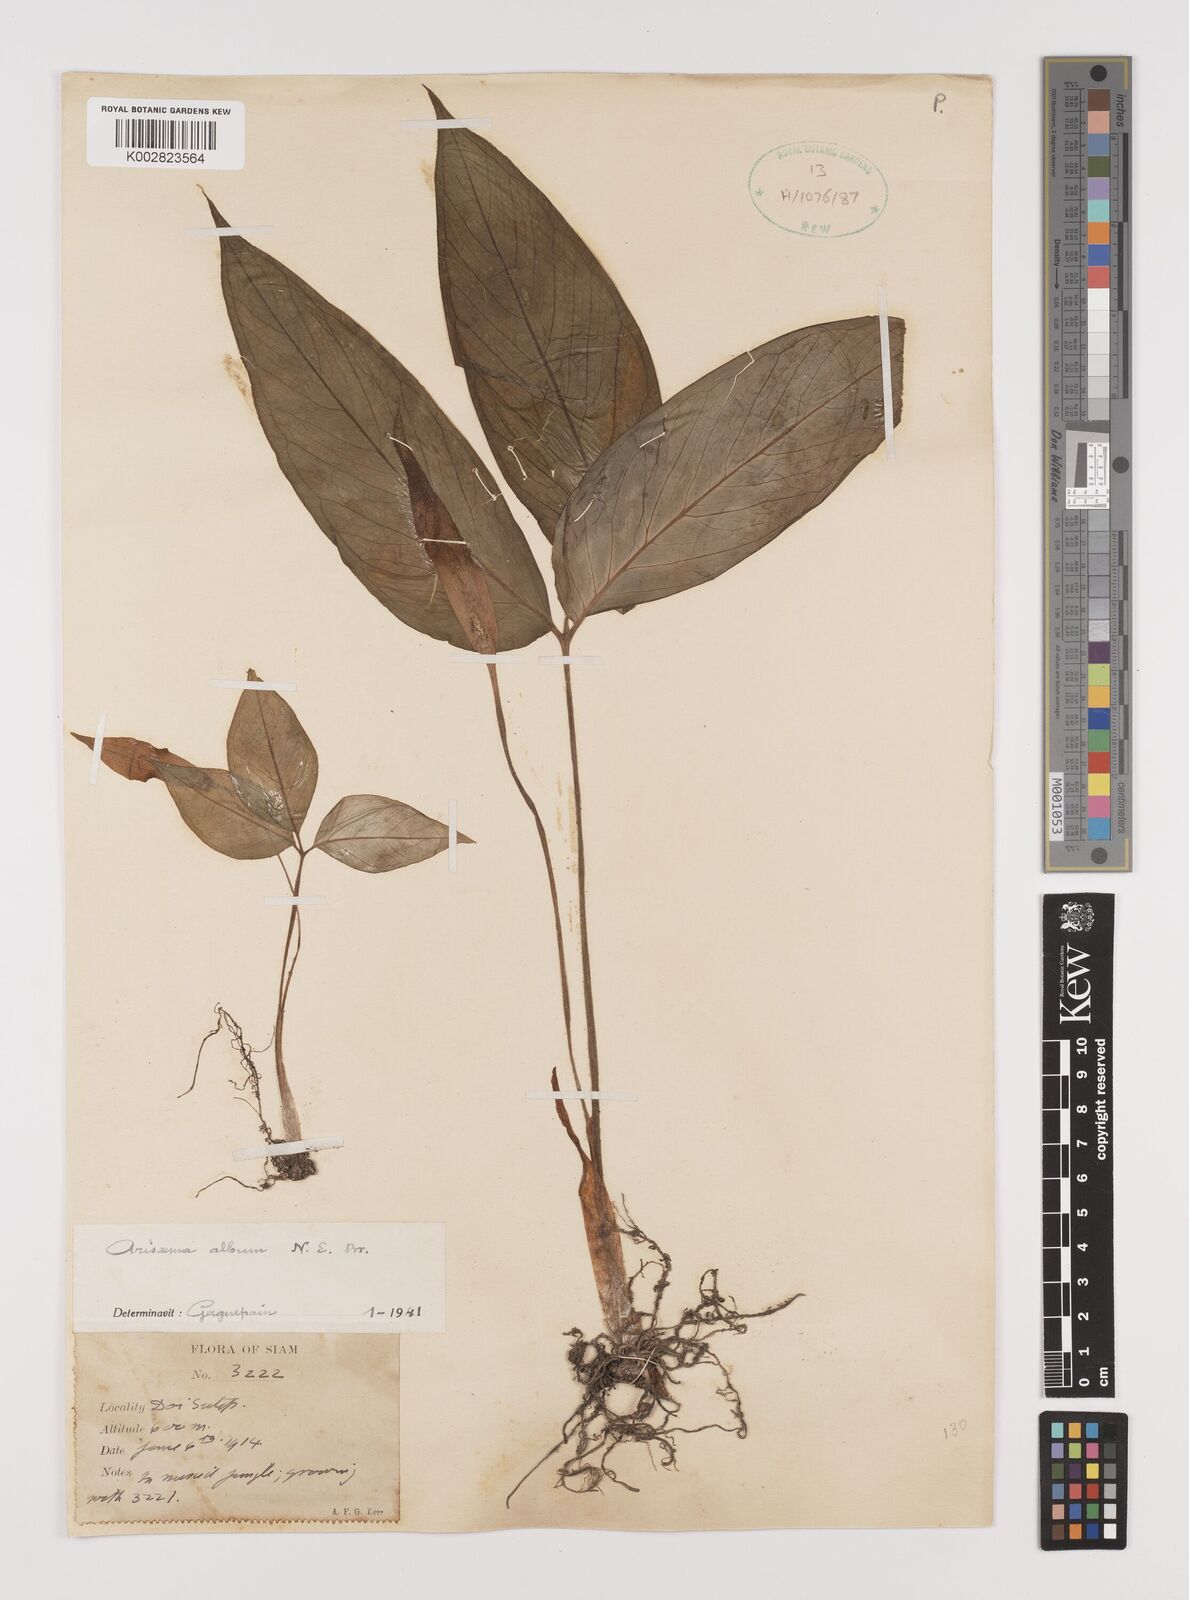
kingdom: Plantae
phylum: Tracheophyta
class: Liliopsida
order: Alismatales
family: Araceae
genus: Arisaema
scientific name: Arisaema album
